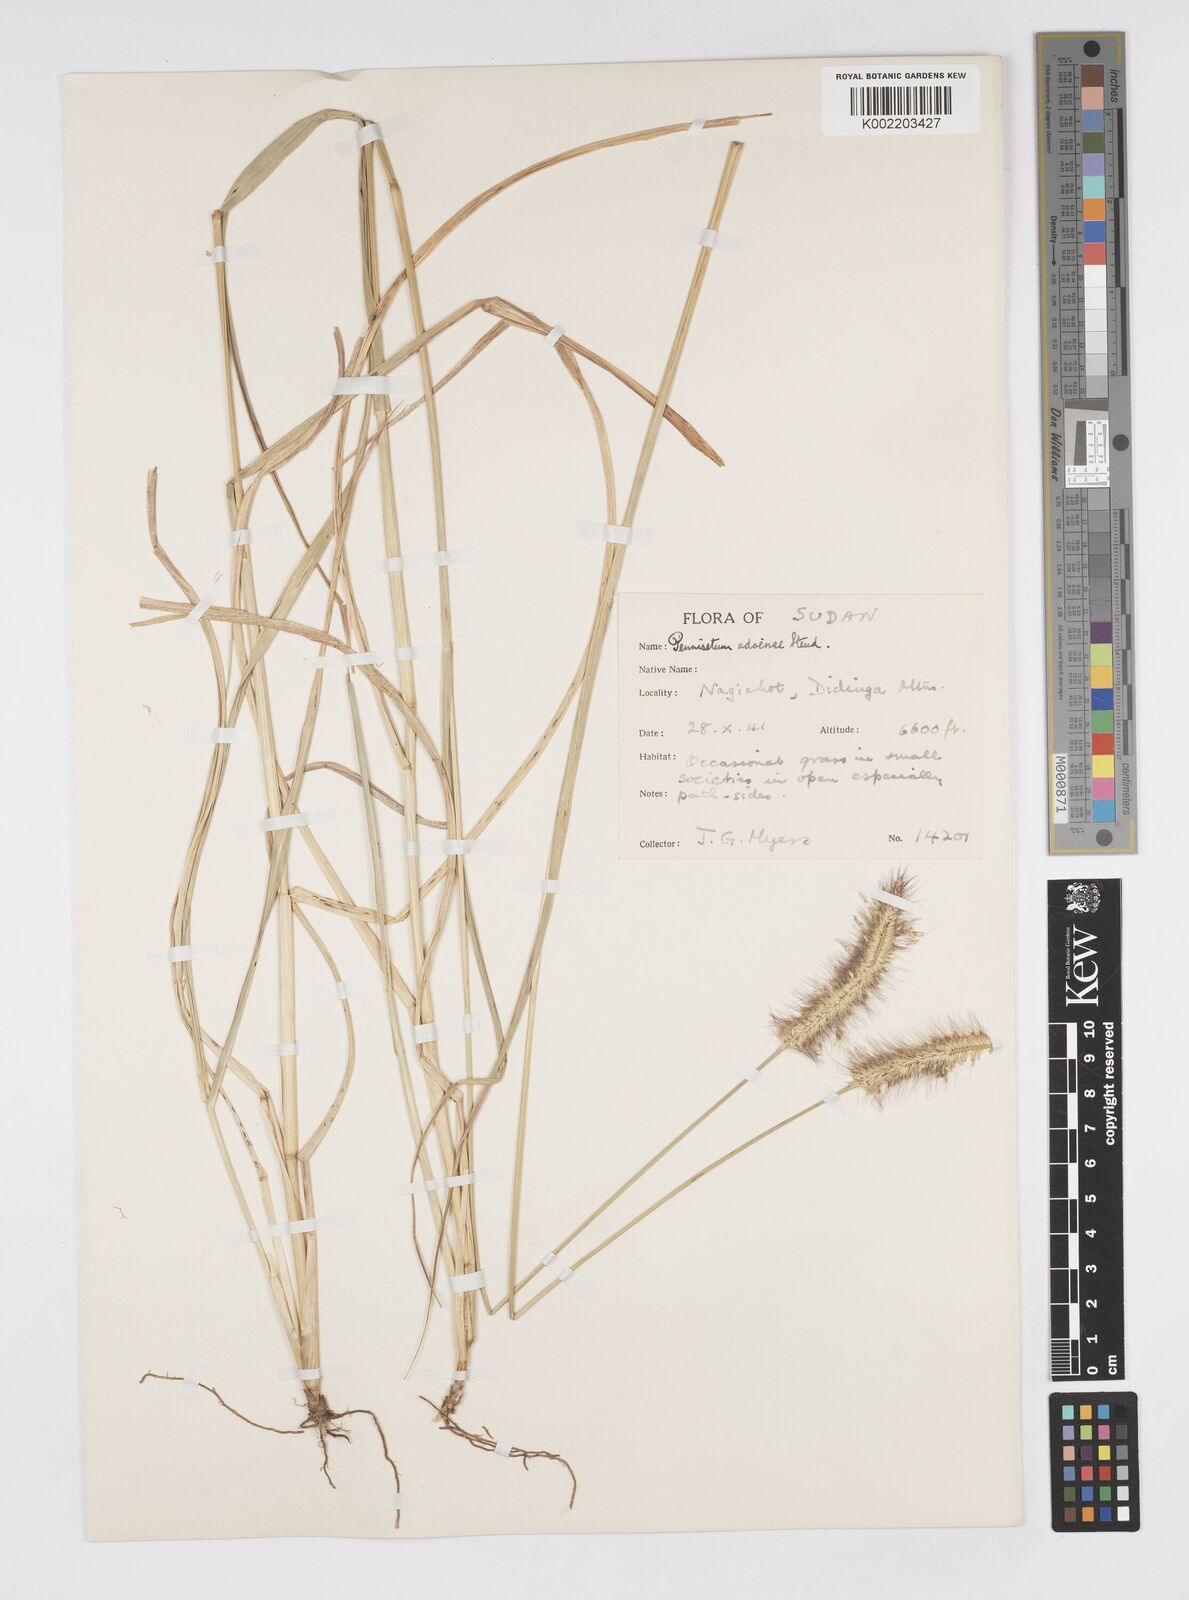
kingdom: Plantae
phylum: Tracheophyta
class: Liliopsida
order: Poales
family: Poaceae
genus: Cenchrus
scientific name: Cenchrus geniculatus
